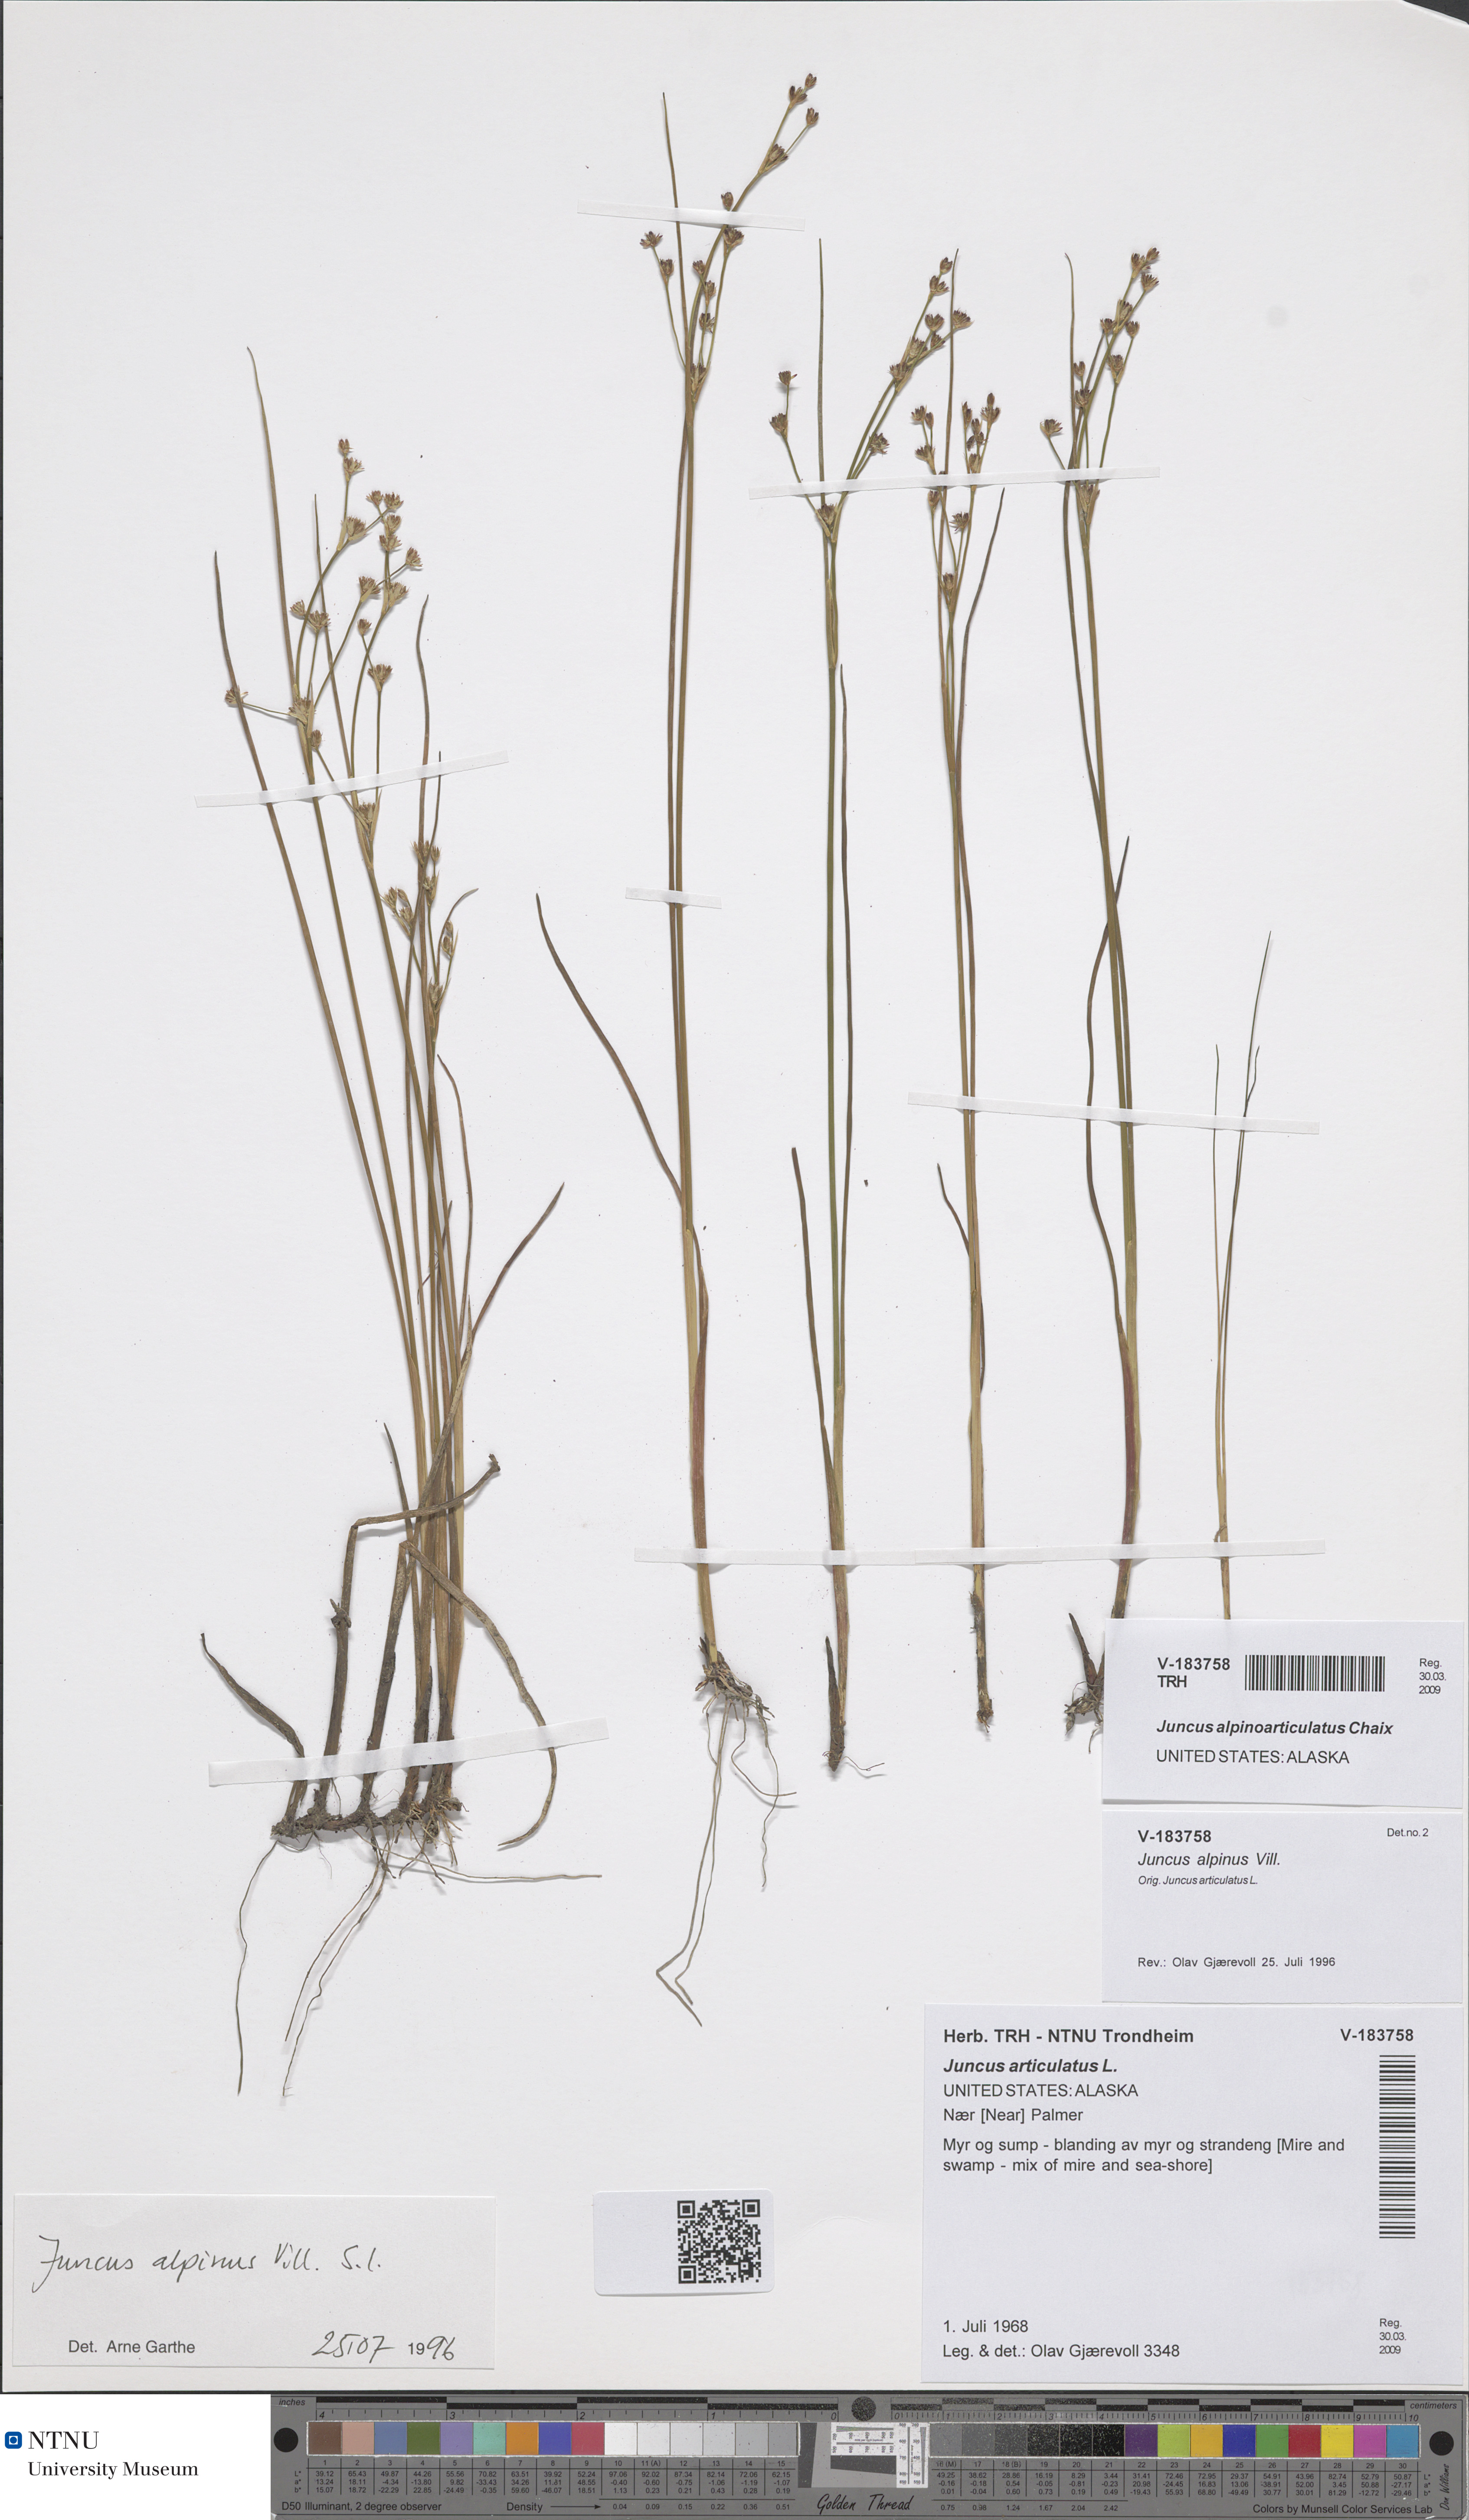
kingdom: Plantae
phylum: Tracheophyta
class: Liliopsida
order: Poales
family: Juncaceae
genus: Juncus
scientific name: Juncus alpinoarticulatus
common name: Alpine rush
